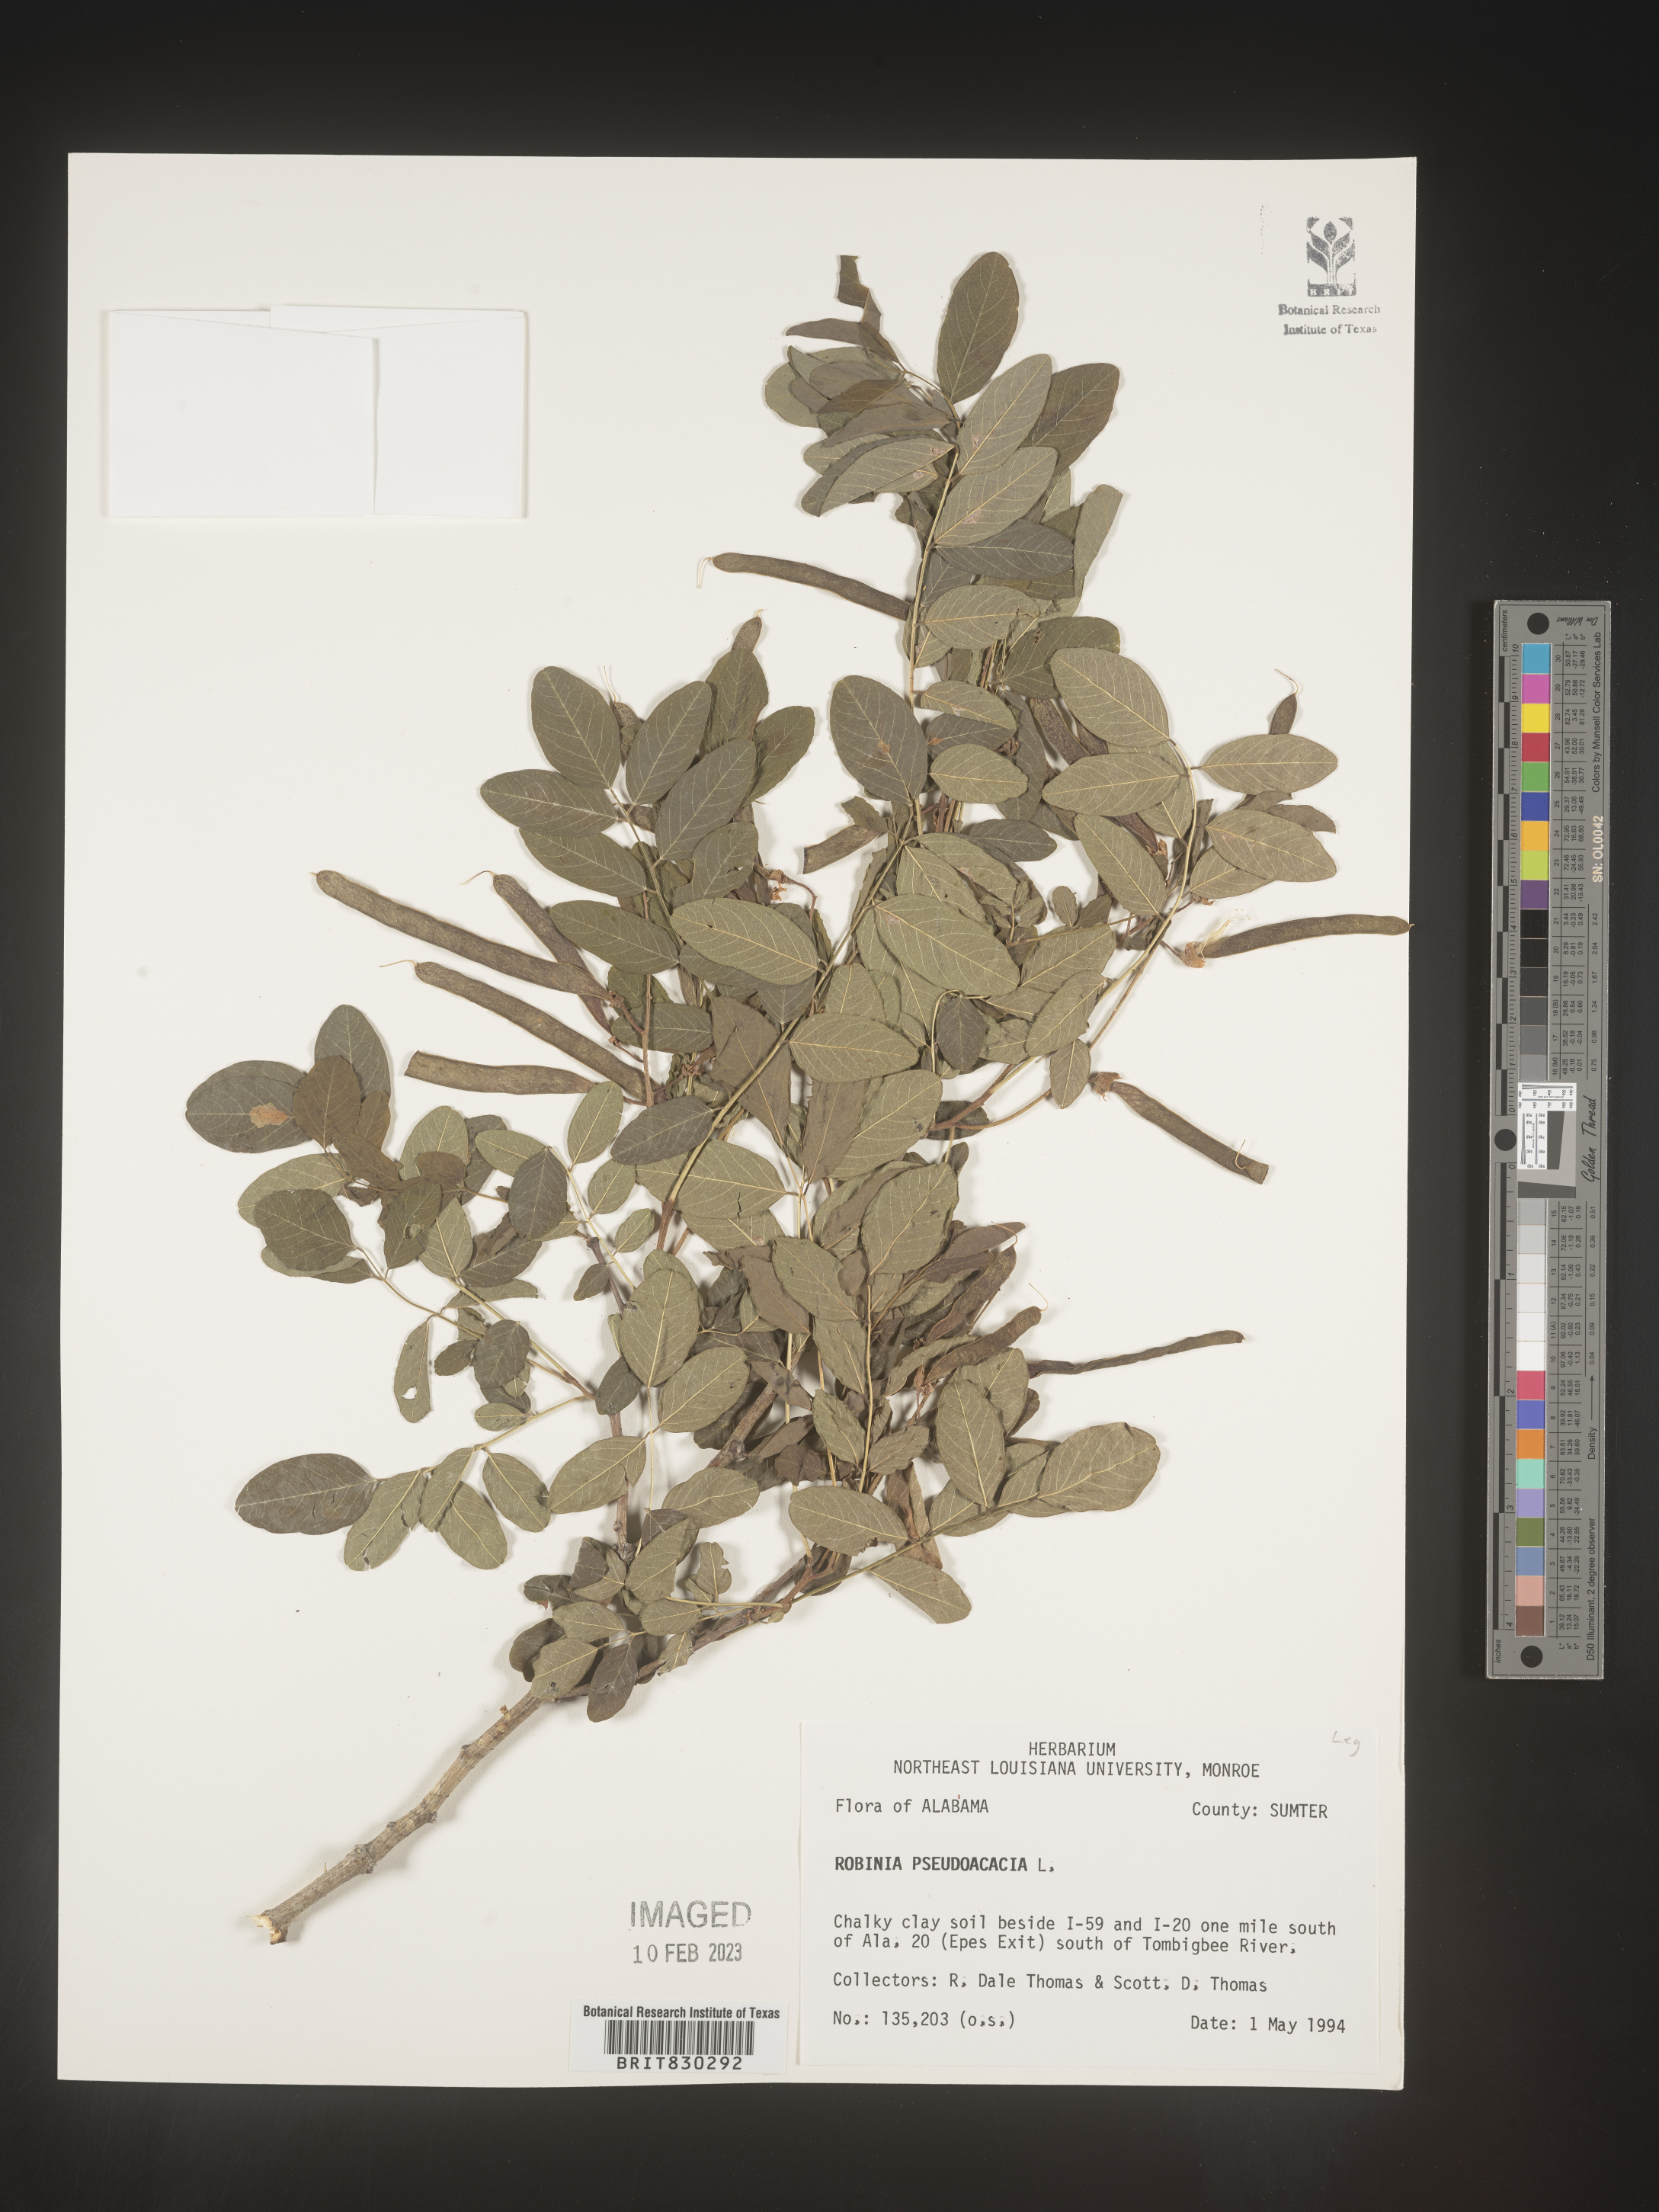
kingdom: Plantae
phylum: Tracheophyta
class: Magnoliopsida
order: Fabales
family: Fabaceae
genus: Robinia
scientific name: Robinia pseudoacacia
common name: Black locust
